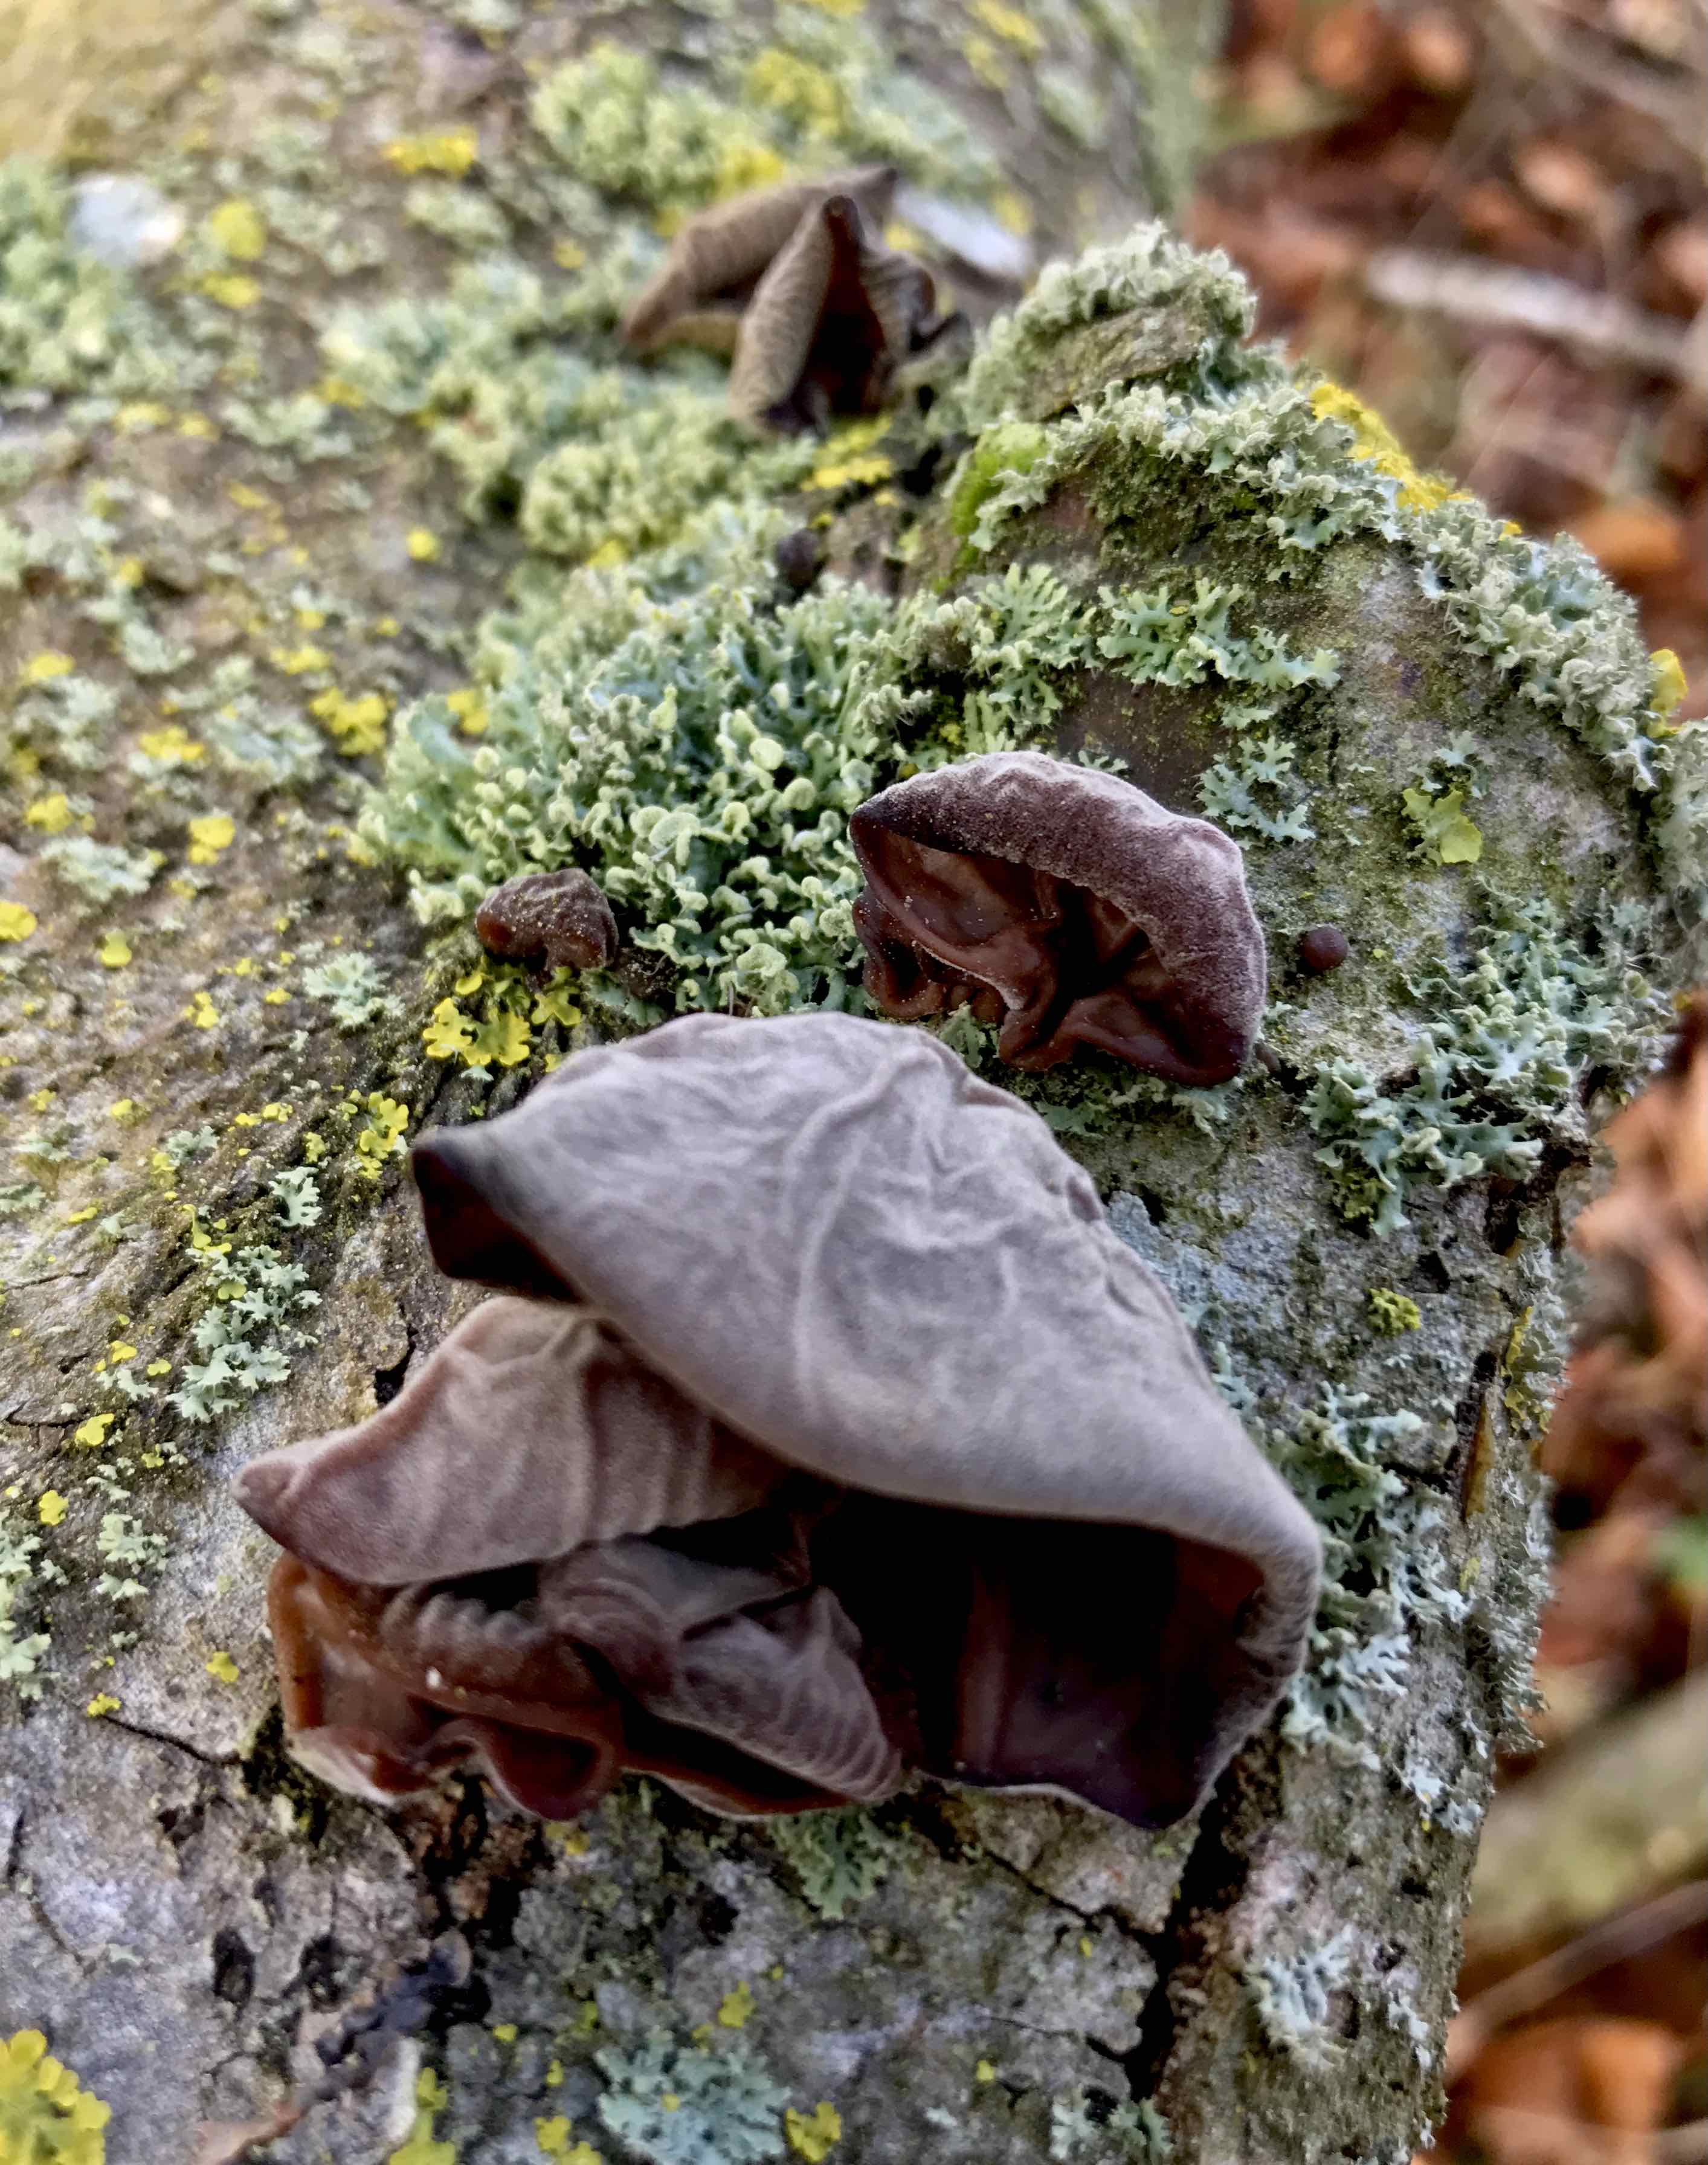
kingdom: Fungi
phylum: Basidiomycota
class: Agaricomycetes
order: Auriculariales
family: Auriculariaceae
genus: Auricularia
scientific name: Auricularia auricula-judae
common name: almindelig judasøre
